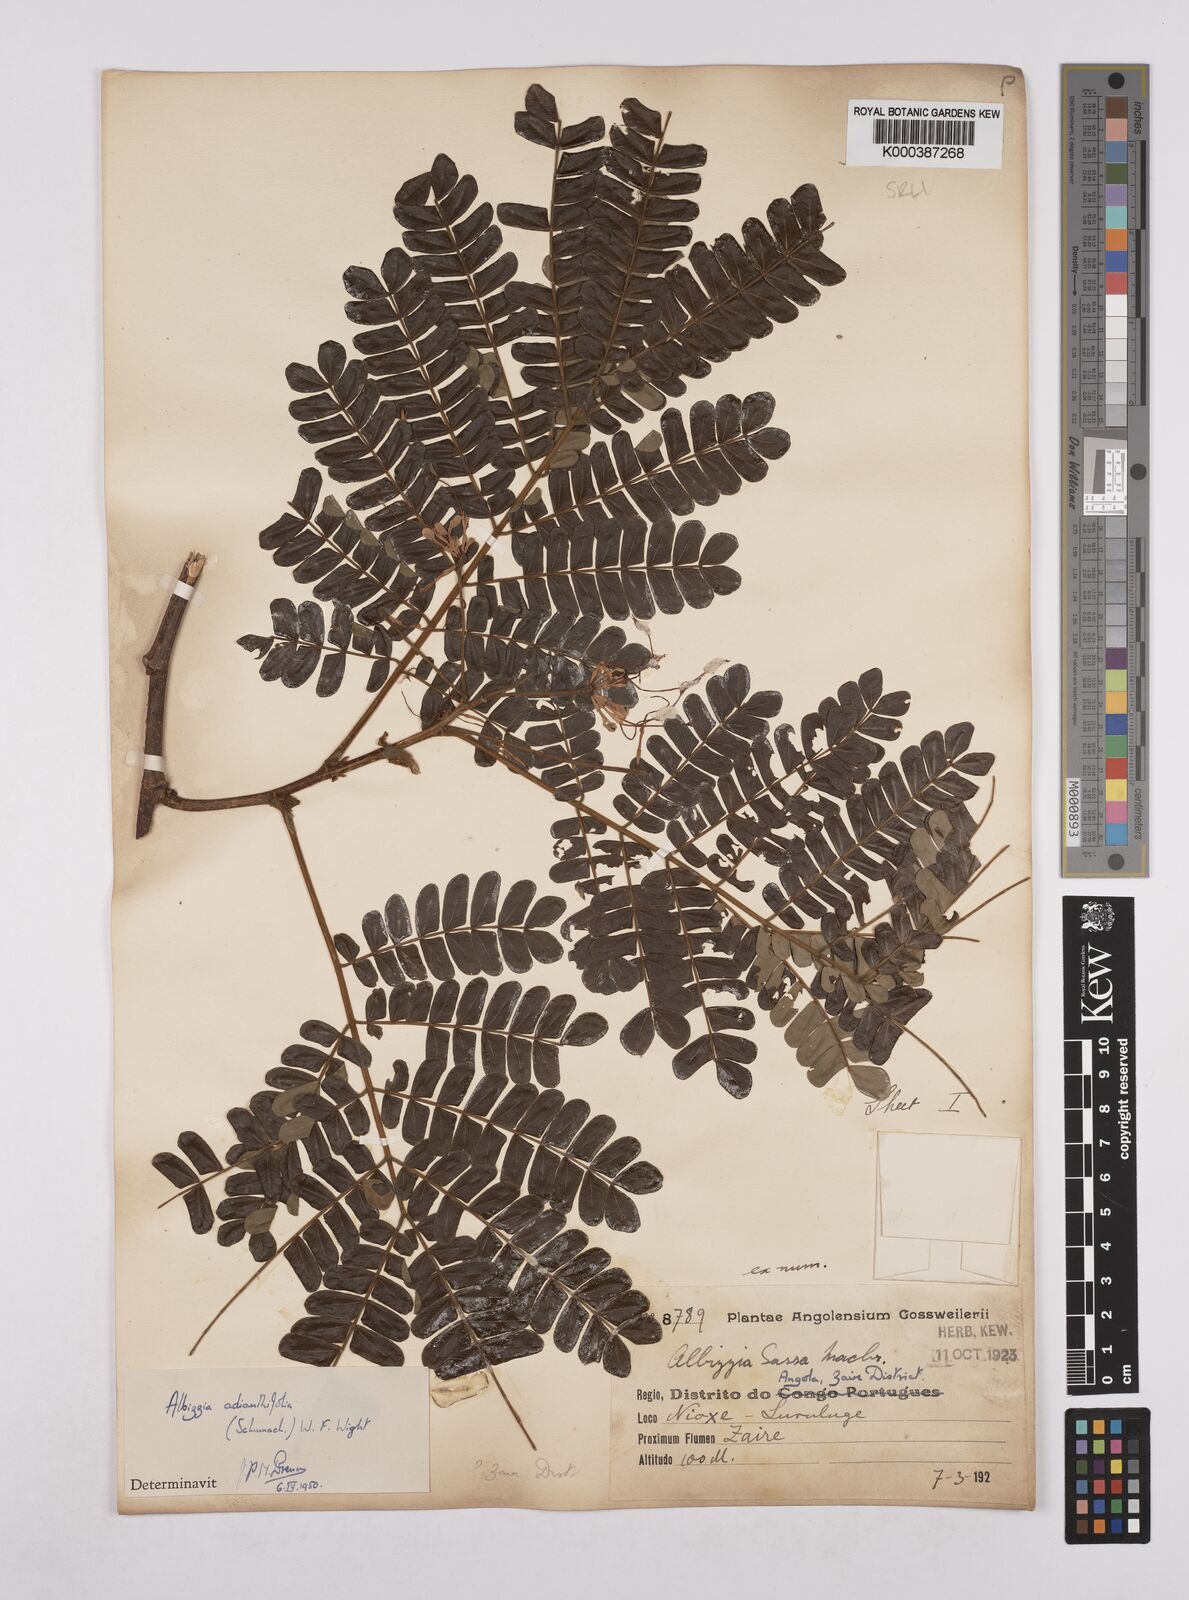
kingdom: Plantae
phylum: Tracheophyta
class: Magnoliopsida
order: Fabales
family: Fabaceae
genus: Albizia
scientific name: Albizia adianthifolia
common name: West african albizia
